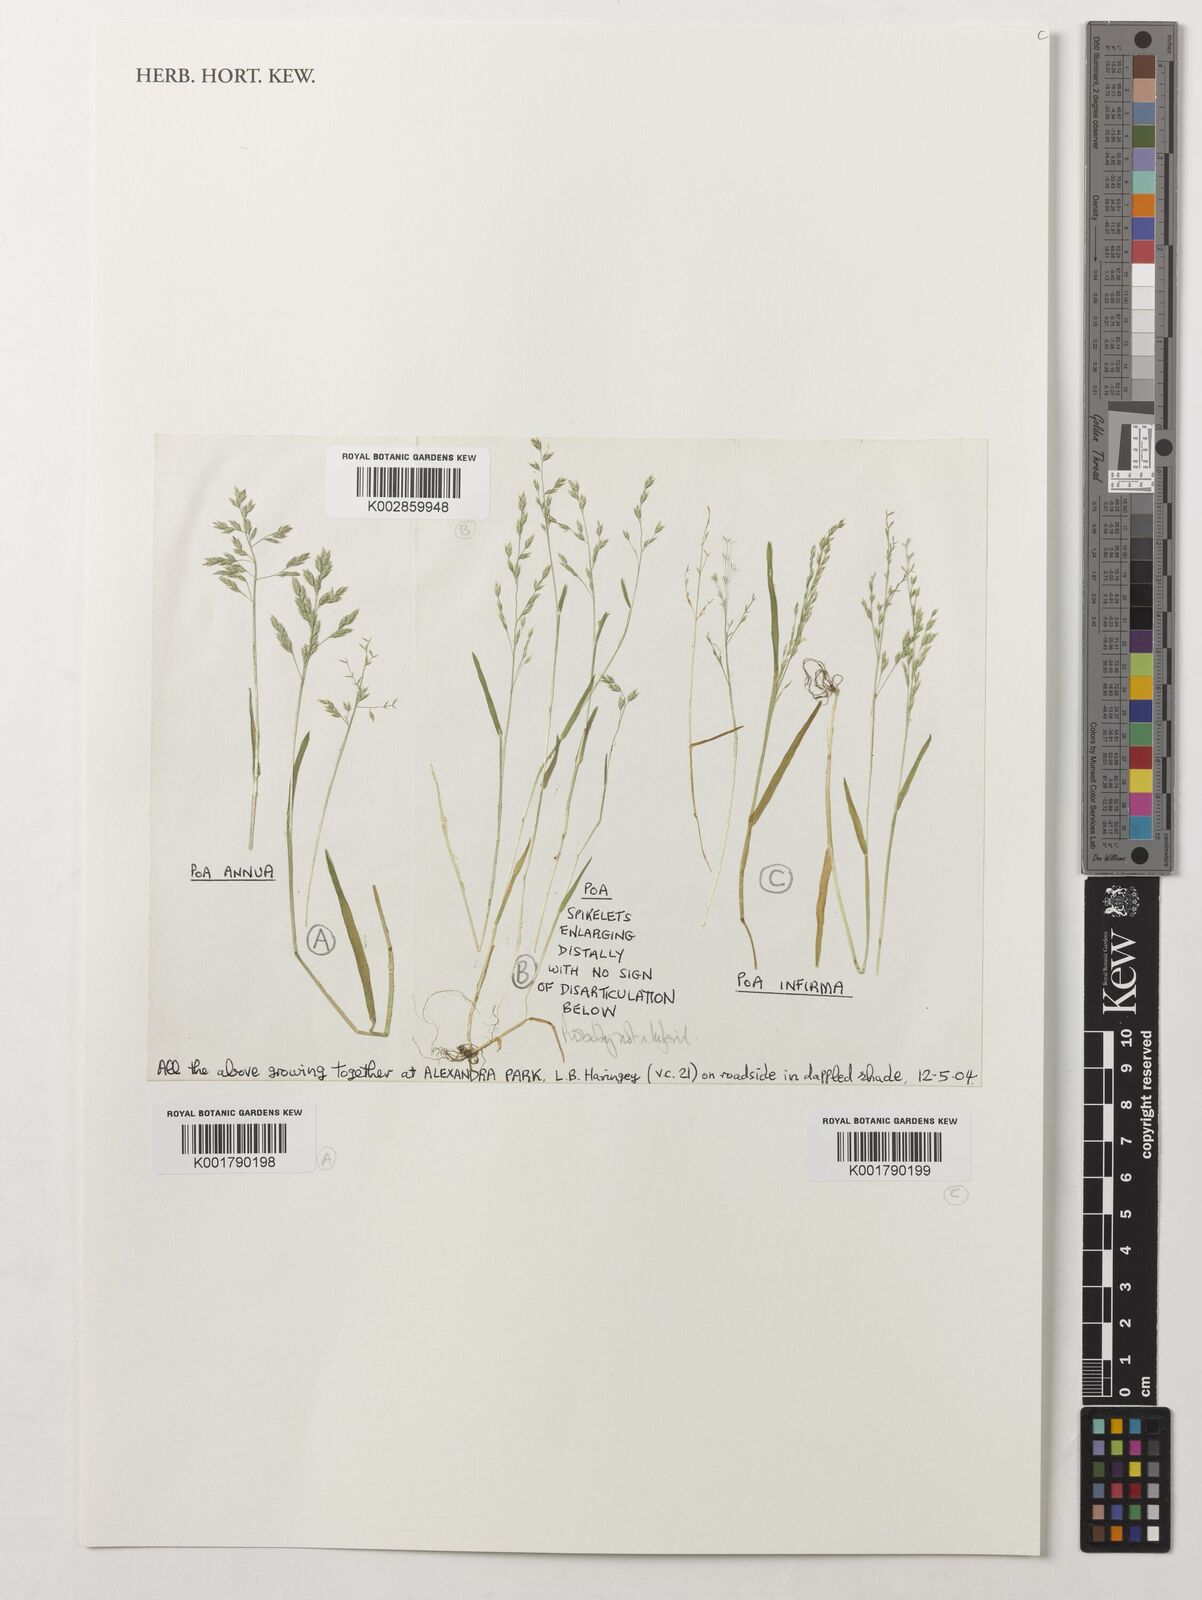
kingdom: Plantae
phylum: Tracheophyta
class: Liliopsida
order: Poales
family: Poaceae
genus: Poa
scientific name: Poa infirma
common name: Weak bluegrass
